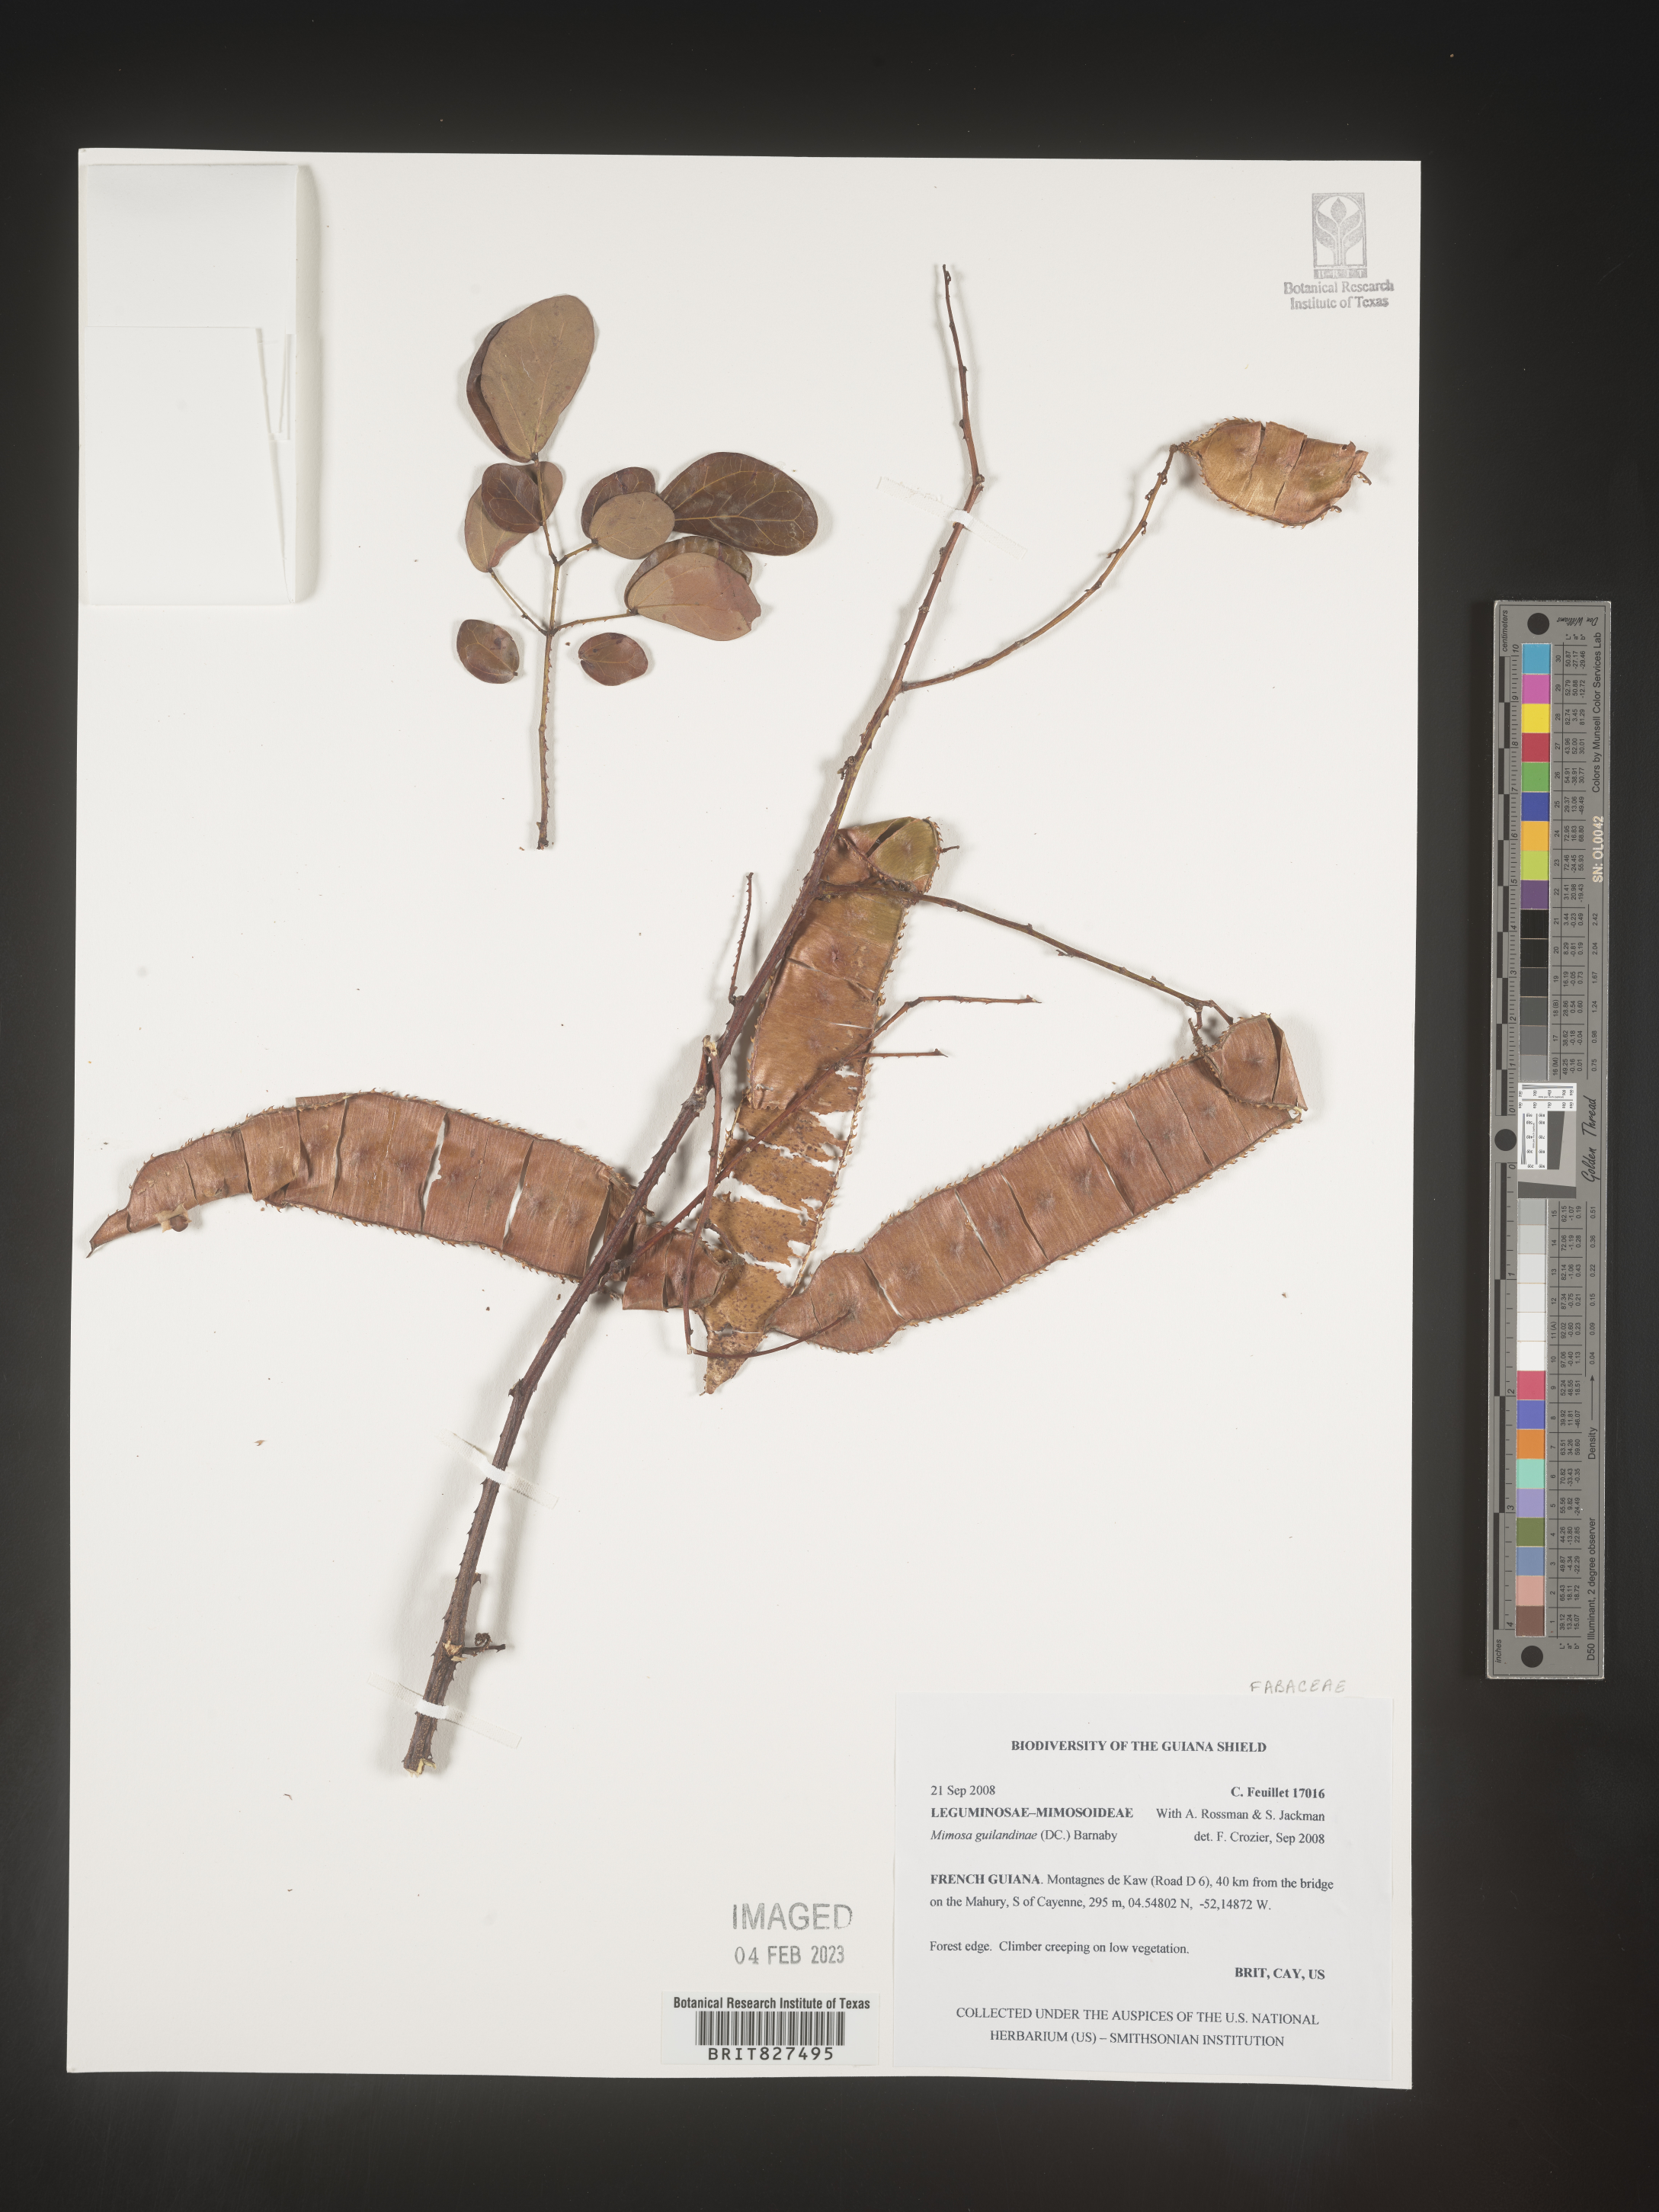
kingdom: Plantae
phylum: Tracheophyta
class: Magnoliopsida
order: Fabales
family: Fabaceae
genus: Mimosa
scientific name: Mimosa
